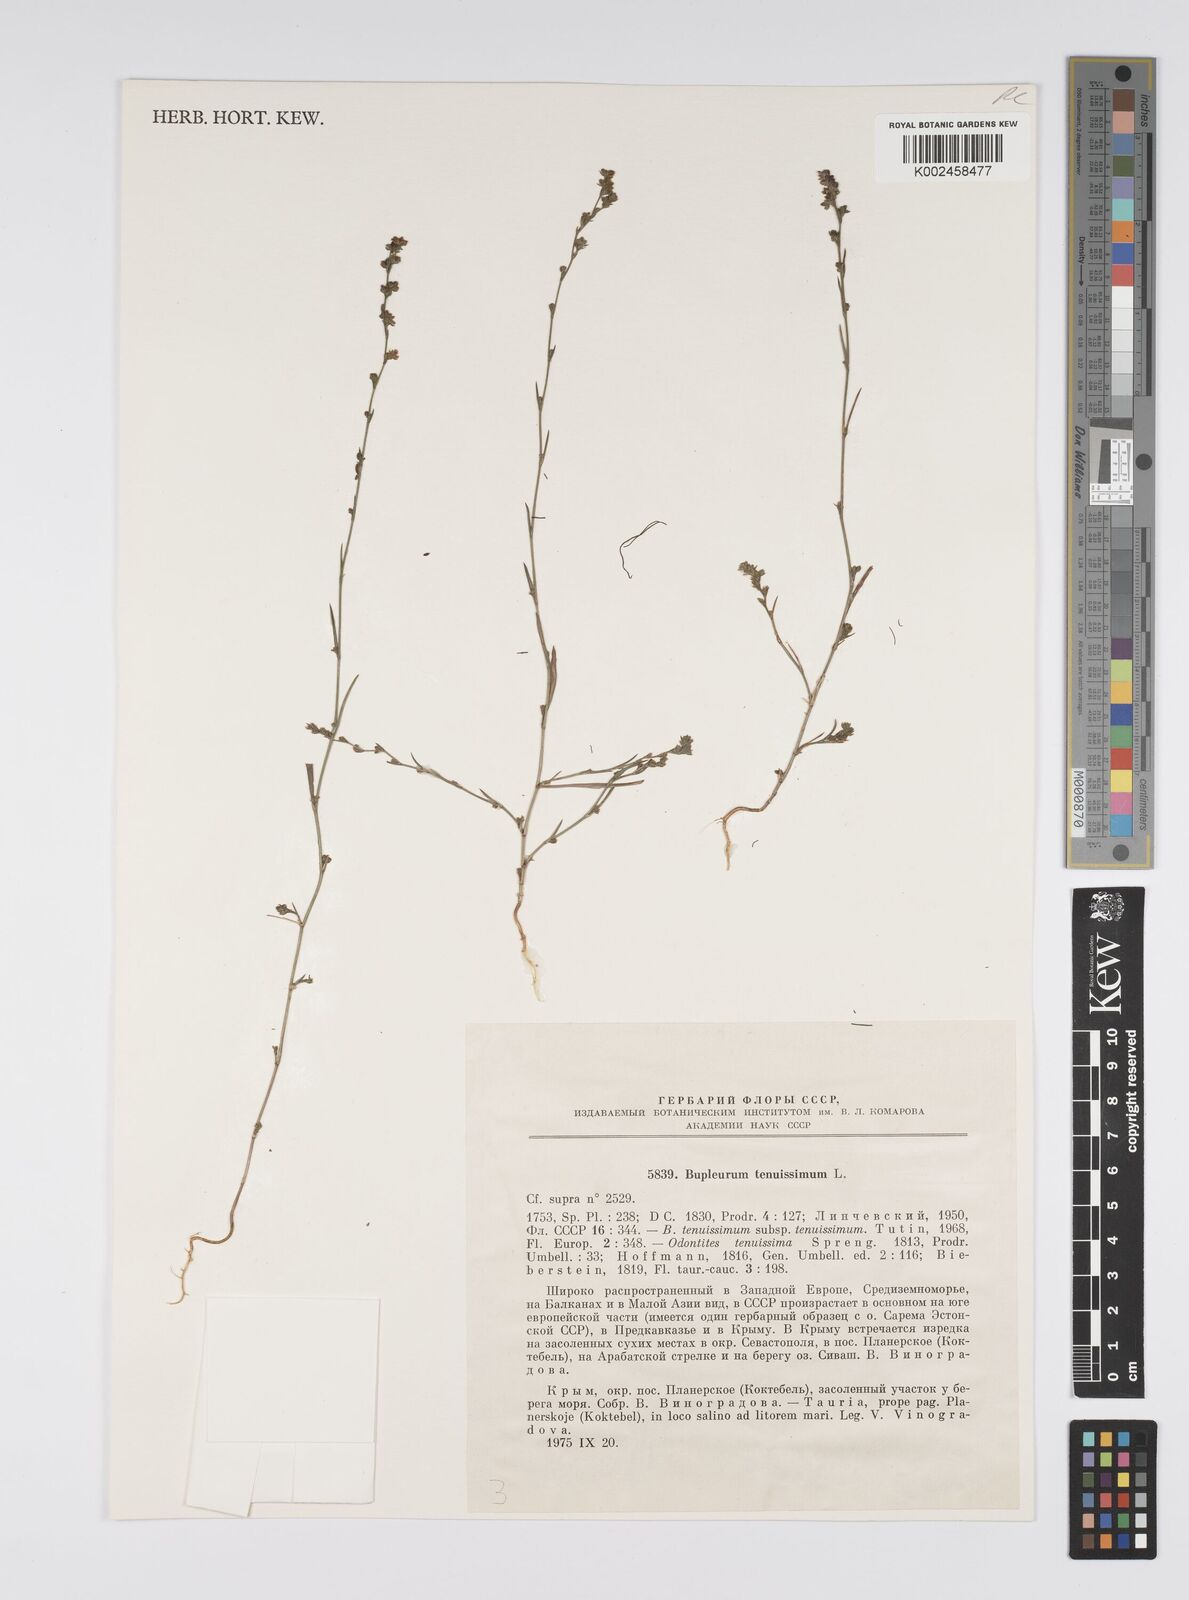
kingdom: Plantae
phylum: Tracheophyta
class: Magnoliopsida
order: Apiales
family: Apiaceae
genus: Bupleurum
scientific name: Bupleurum tenuissimum
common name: Slender hare's-ear
